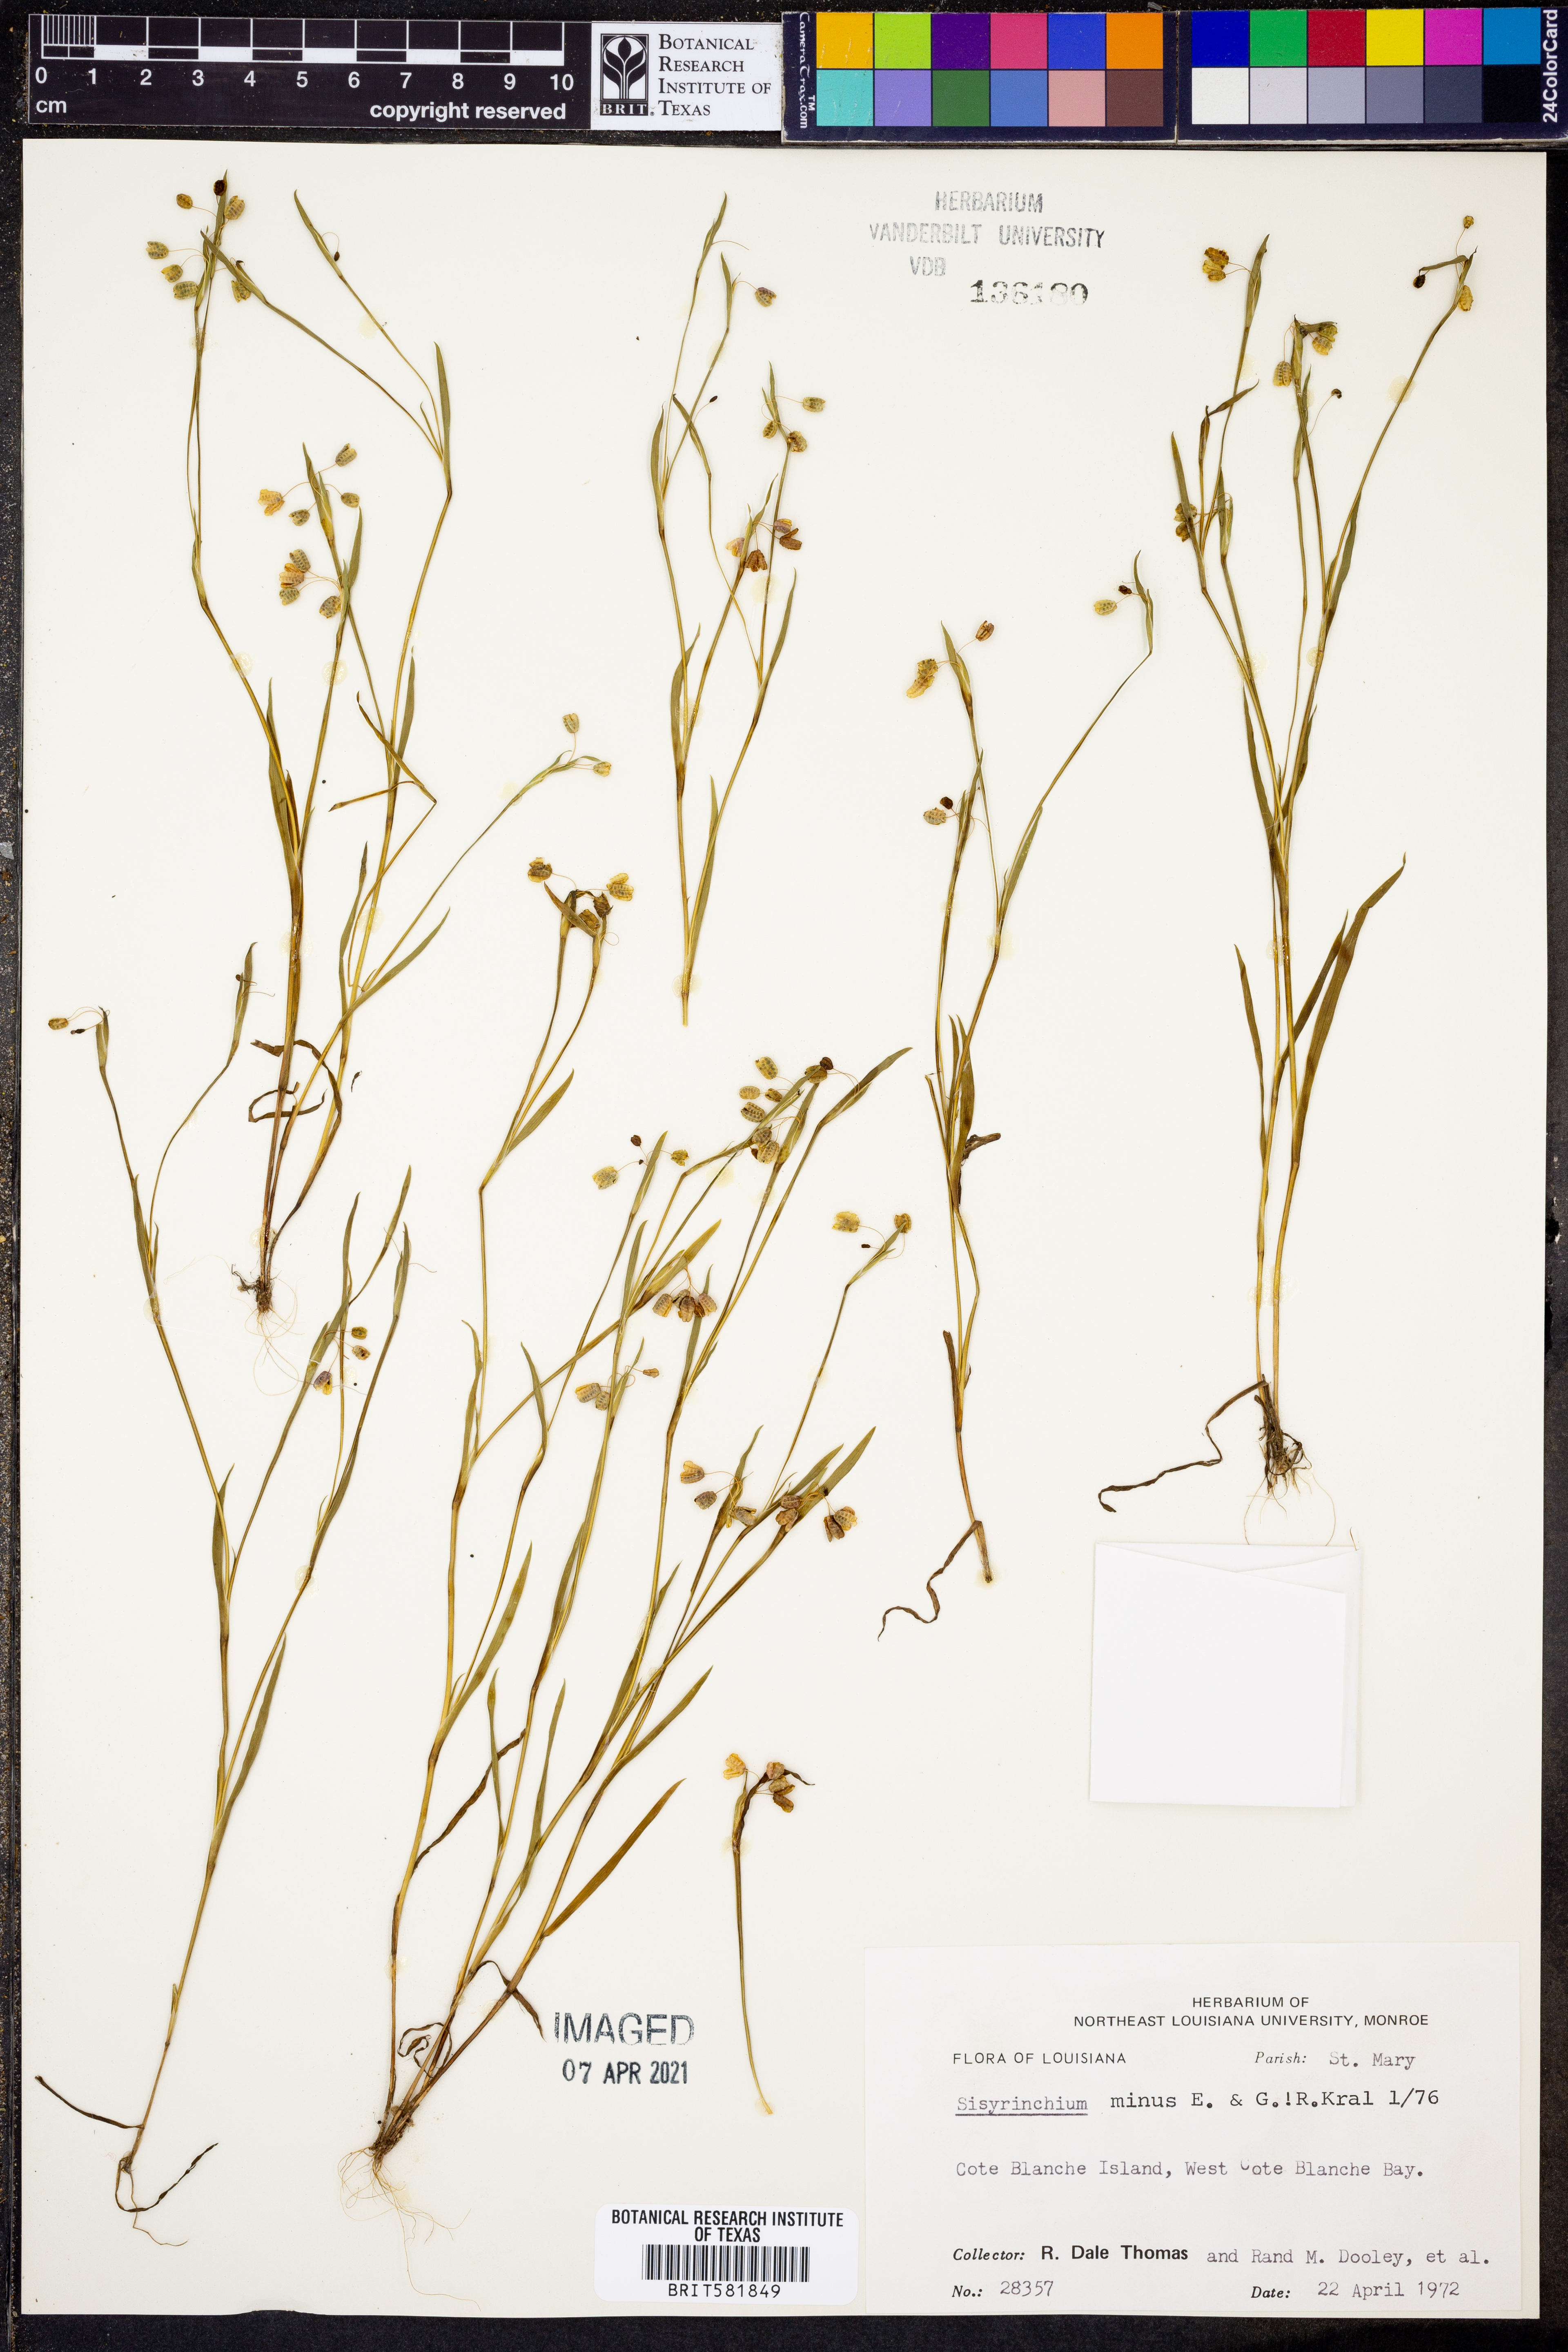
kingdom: Plantae
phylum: Tracheophyta
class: Liliopsida
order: Asparagales
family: Iridaceae
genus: Sisyrinchium
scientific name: Sisyrinchium minus
